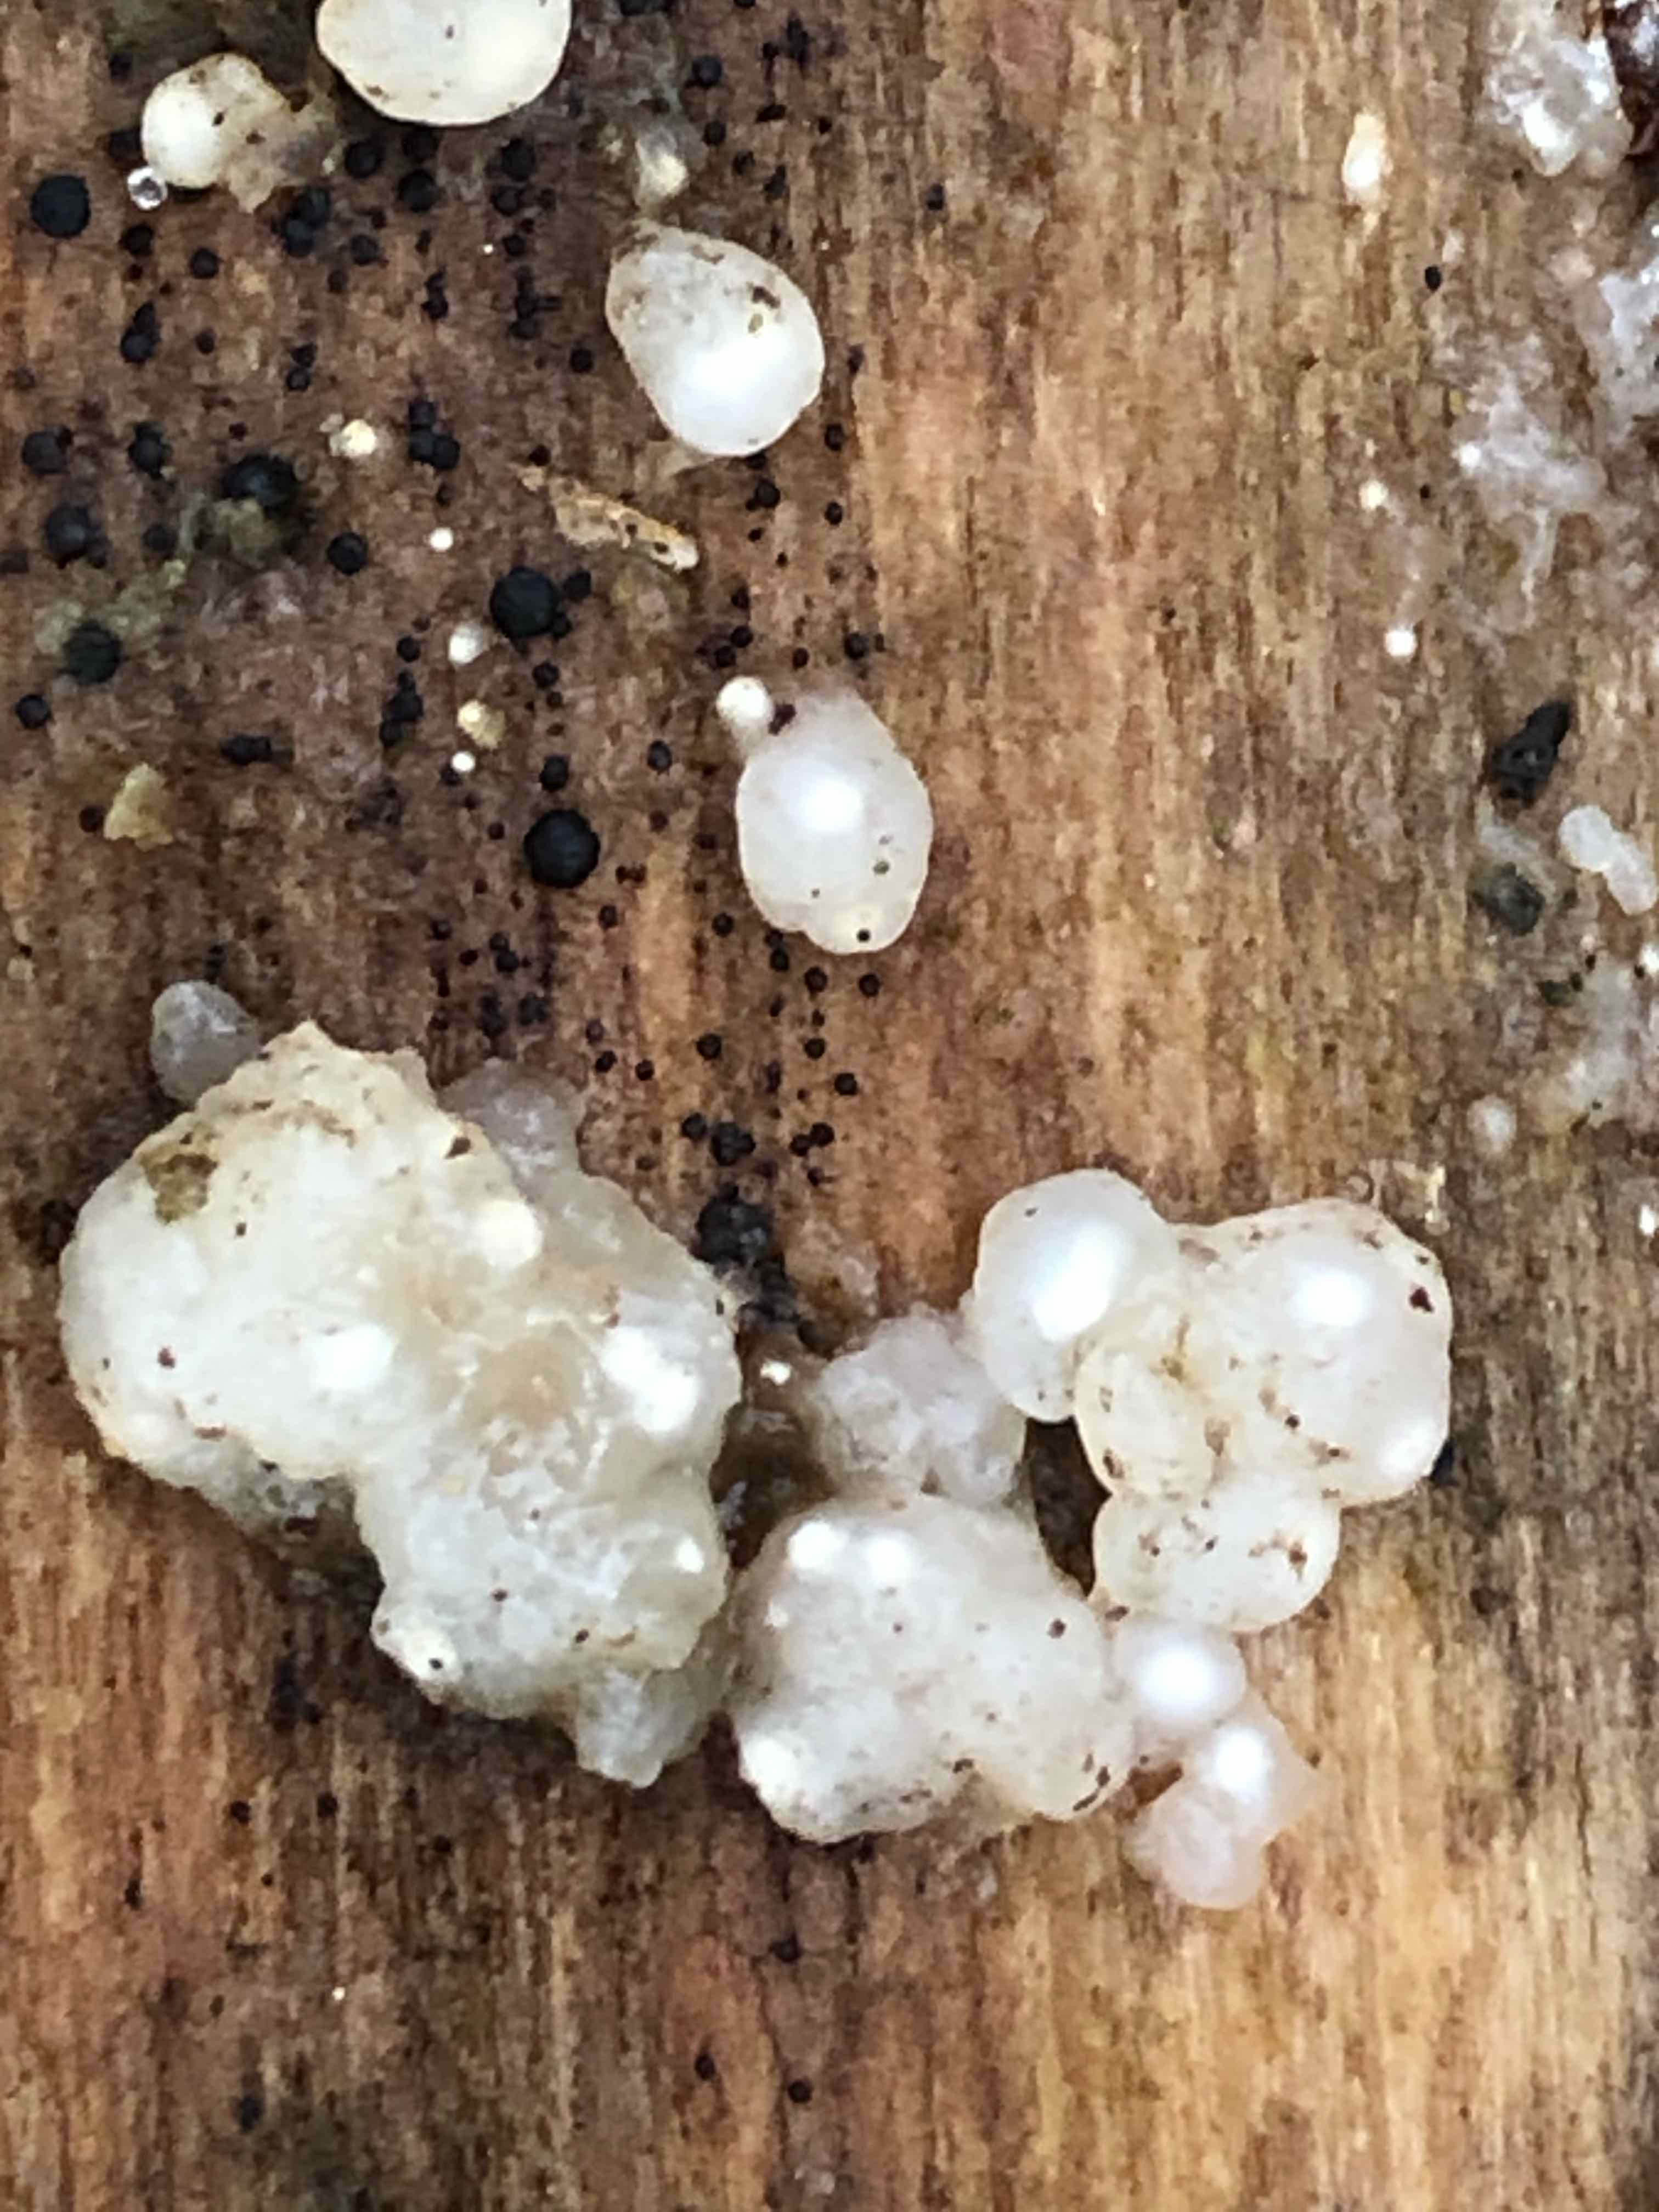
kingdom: Fungi
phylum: Basidiomycota
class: Agaricomycetes
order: Auriculariales
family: Hyaloriaceae
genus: Myxarium
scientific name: Myxarium nucleatum
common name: klar bævretop
